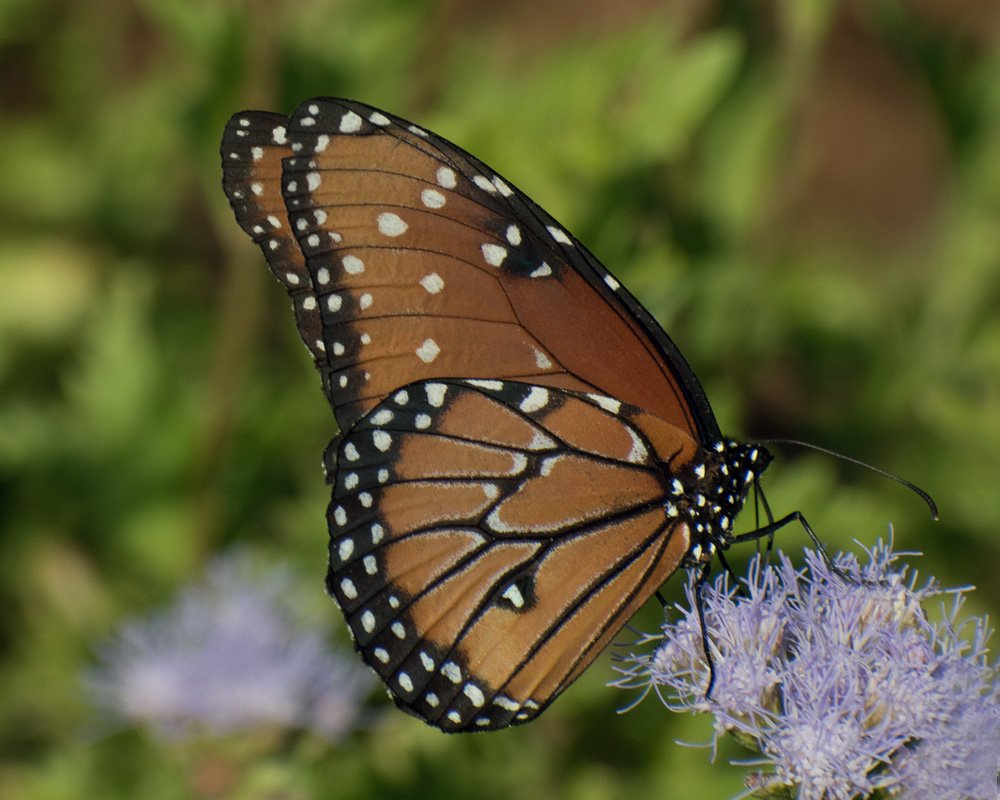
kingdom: Animalia
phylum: Arthropoda
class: Insecta
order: Lepidoptera
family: Nymphalidae
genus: Danaus
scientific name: Danaus gilippus
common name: Queen
